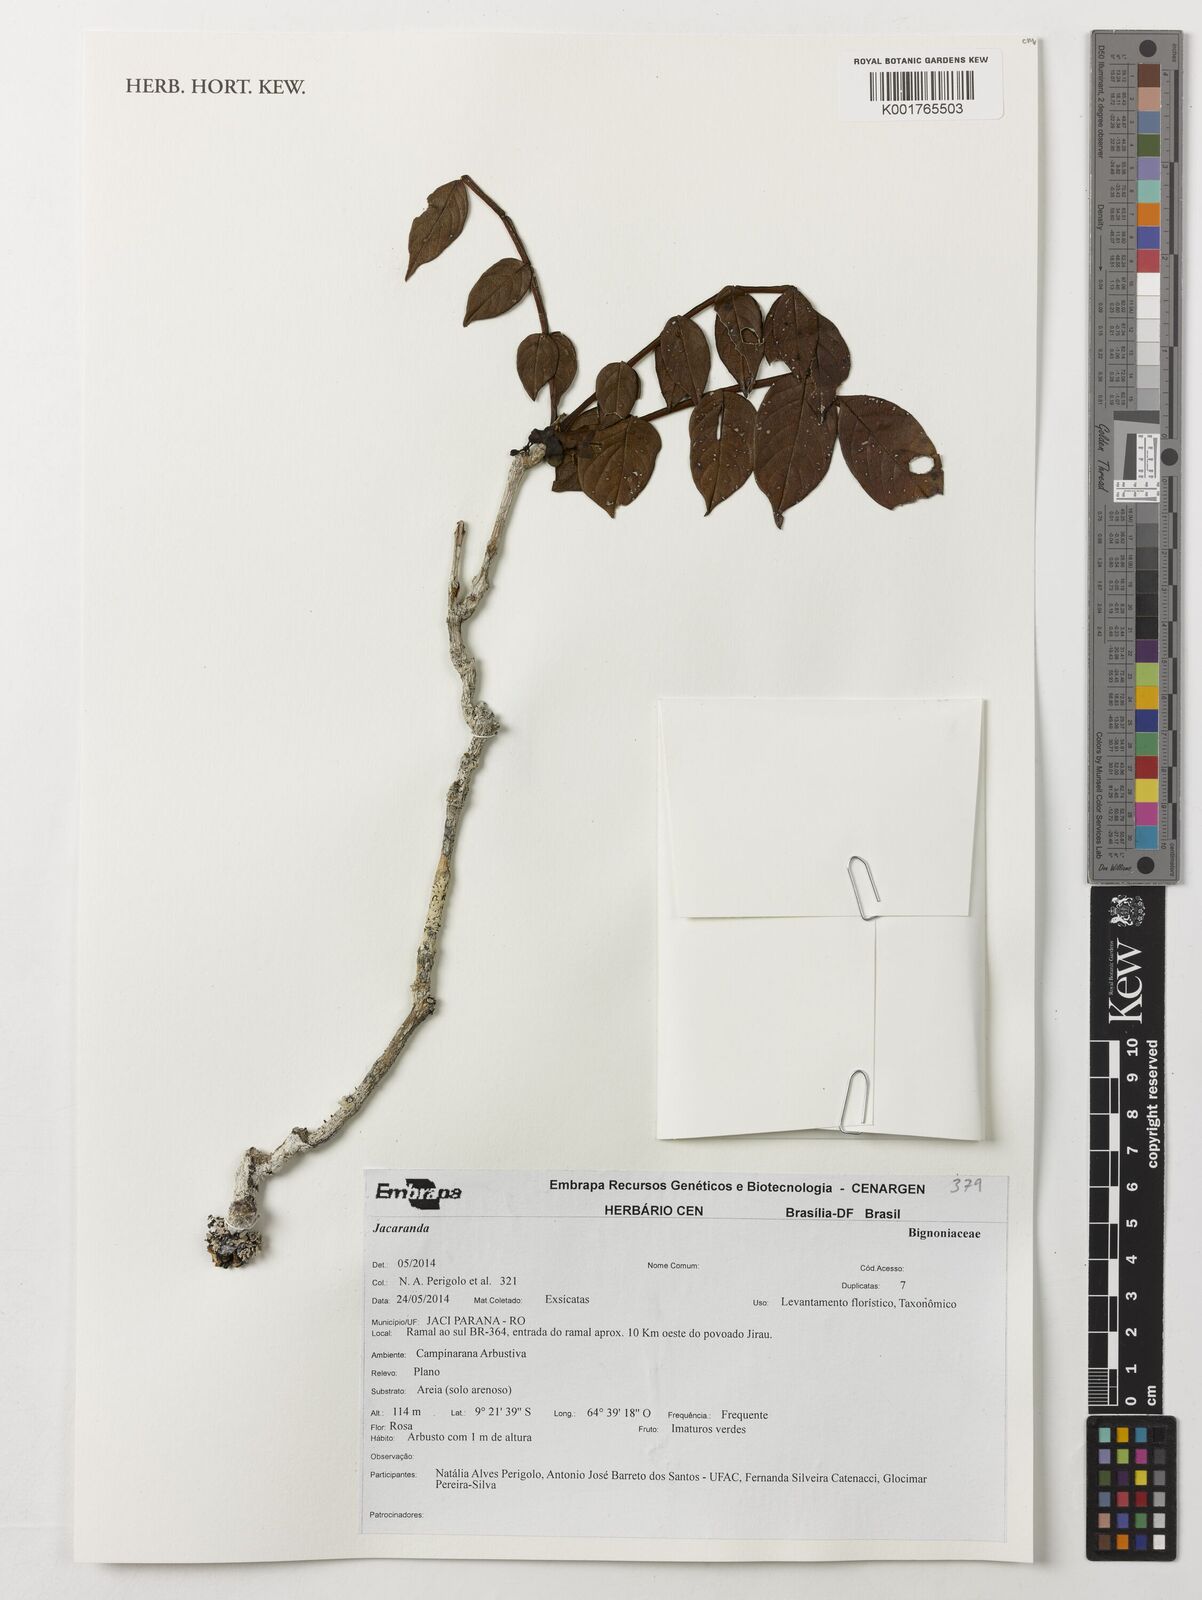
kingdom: Plantae
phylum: Tracheophyta
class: Magnoliopsida
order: Lamiales
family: Bignoniaceae
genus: Jacaranda
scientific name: Jacaranda
